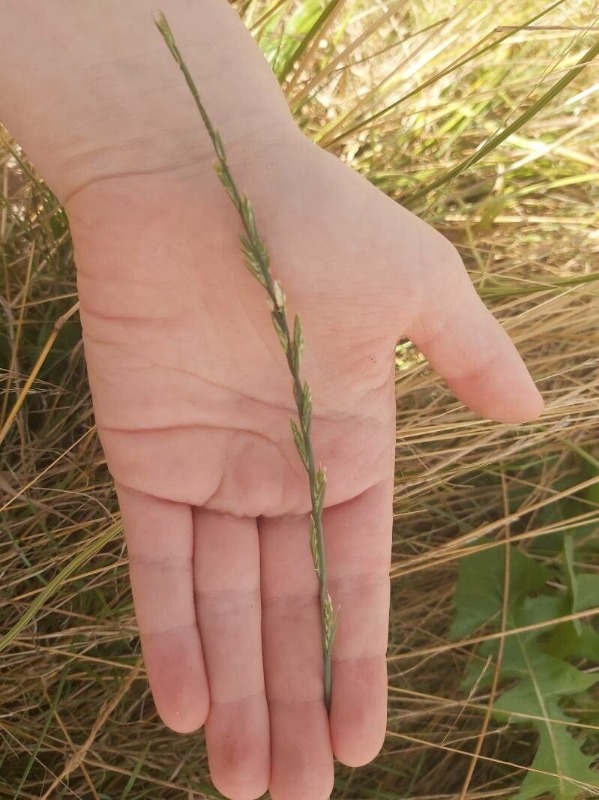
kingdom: Plantae
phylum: Tracheophyta
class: Liliopsida
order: Poales
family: Poaceae
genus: Lolium
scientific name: Lolium perenne
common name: Almindelig rajgræs
